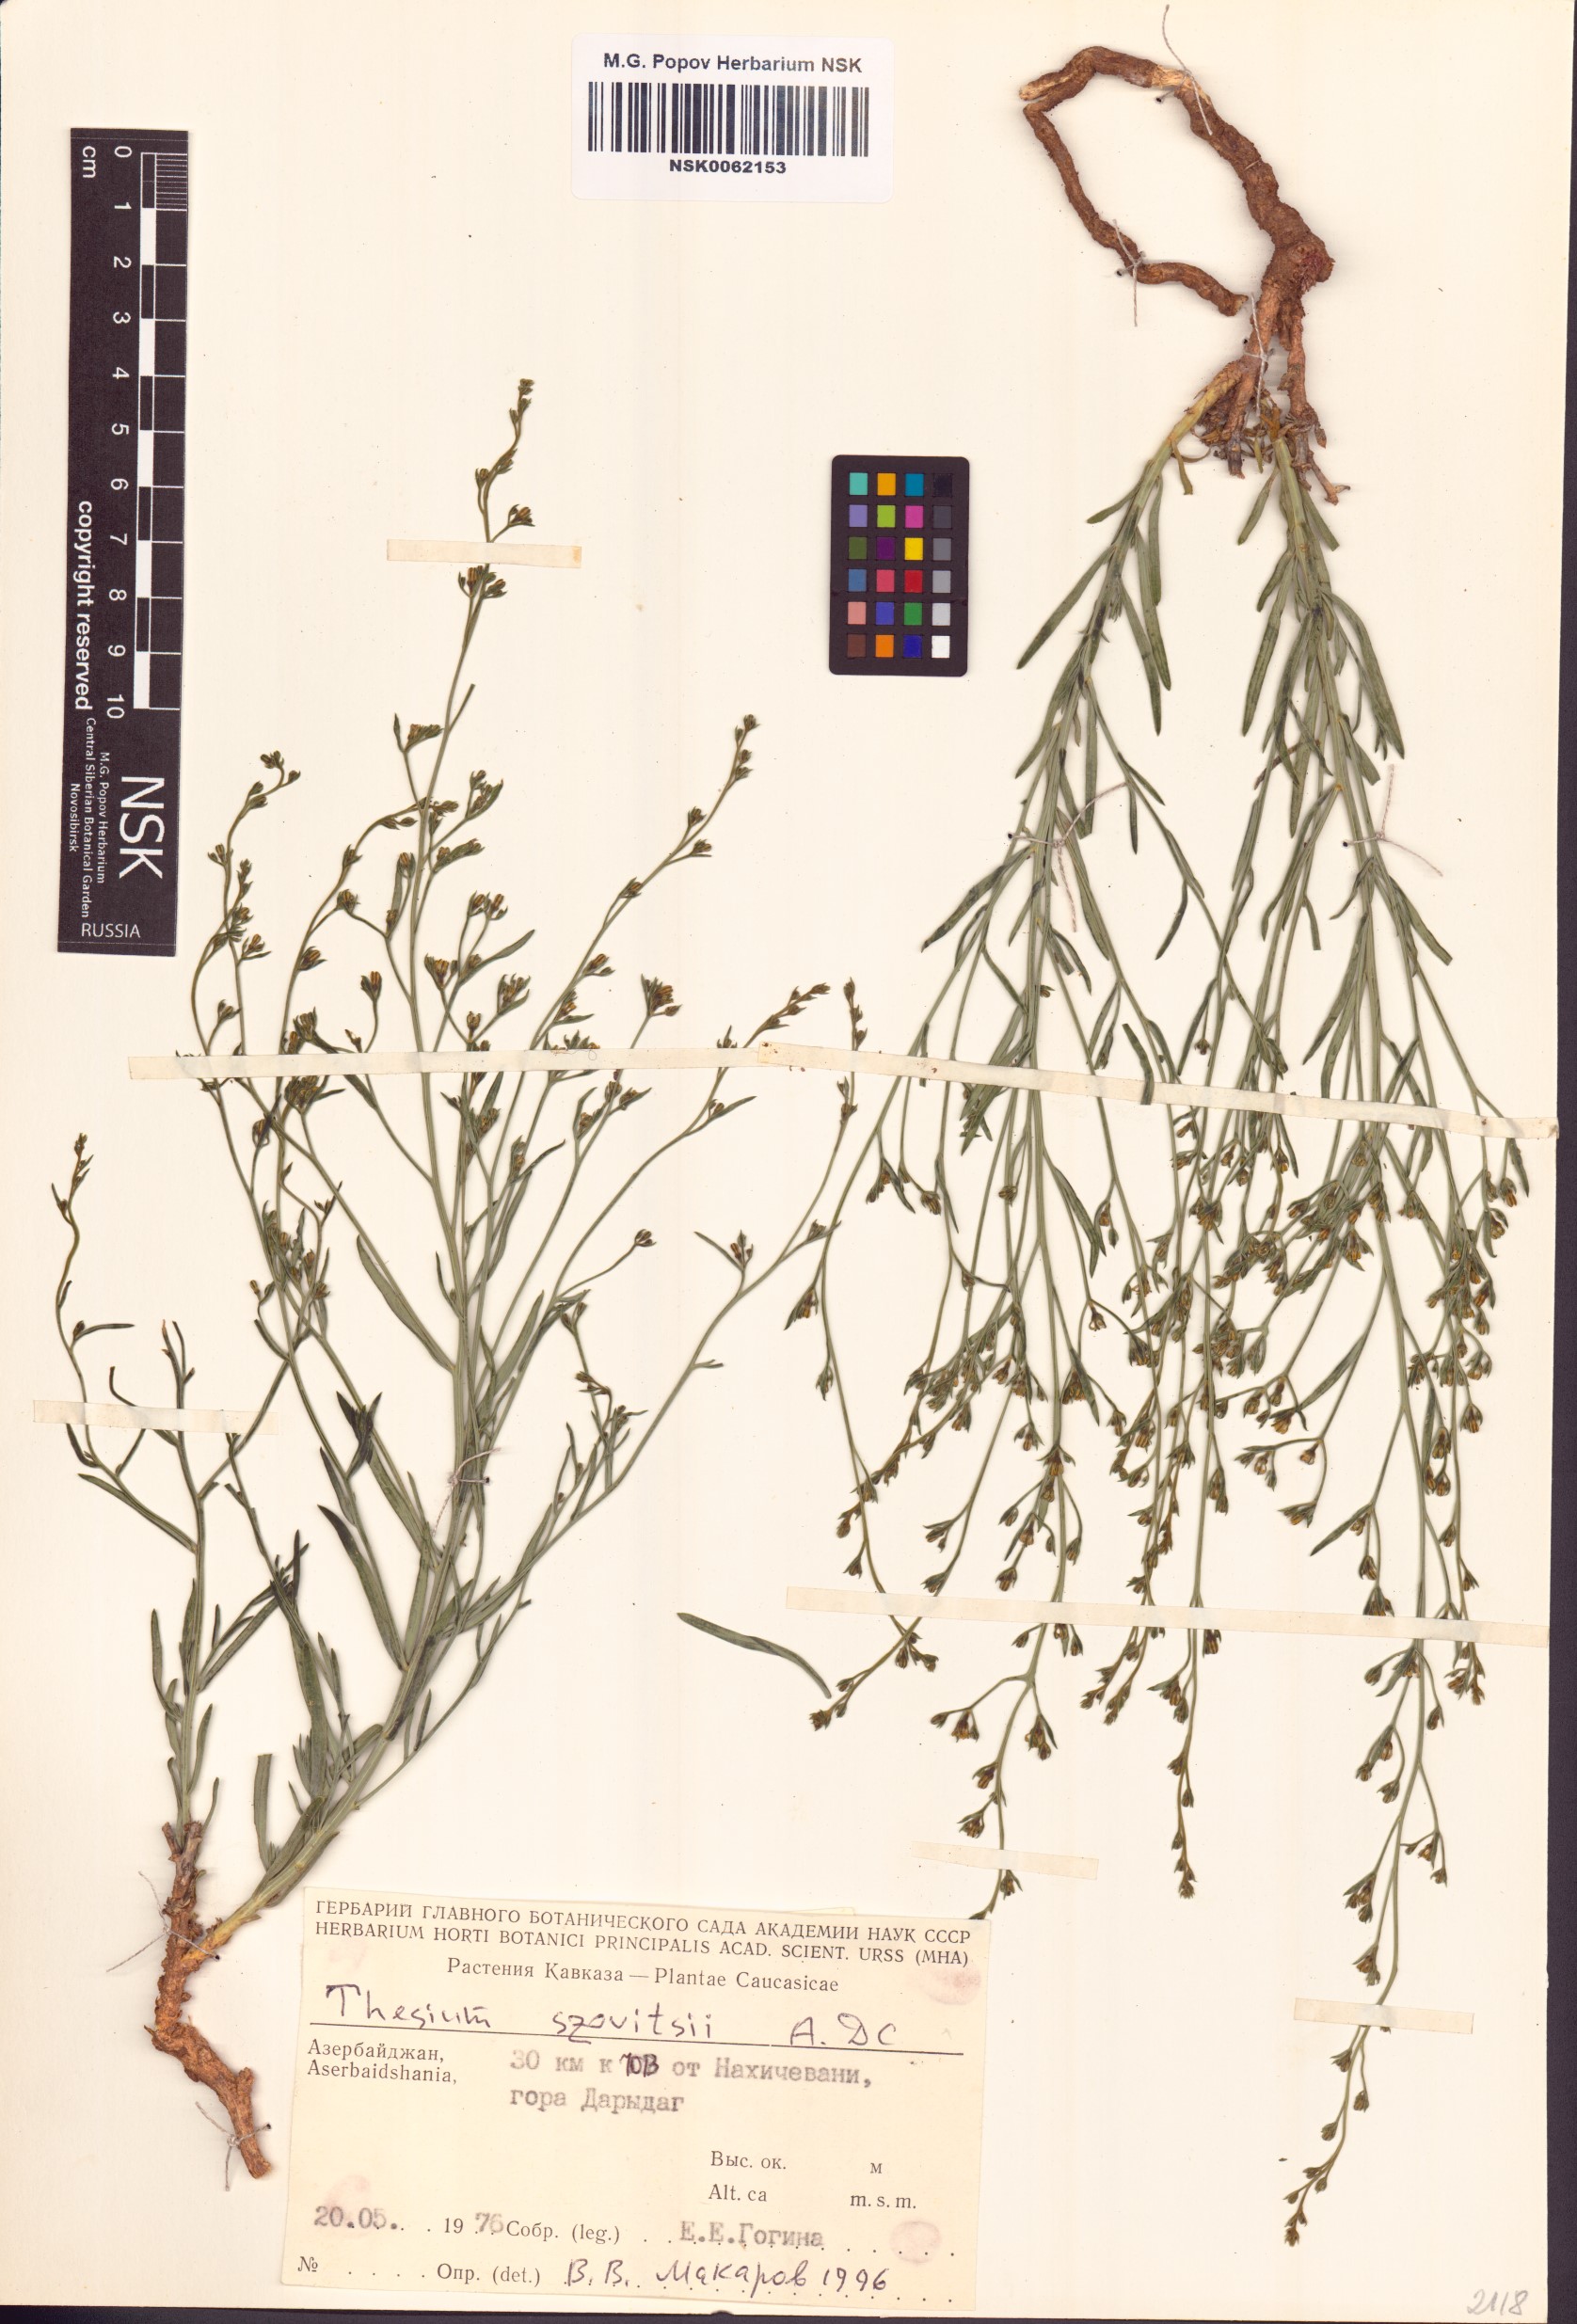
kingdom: Plantae
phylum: Tracheophyta
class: Magnoliopsida
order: Santalales
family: Thesiaceae
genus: Thesium
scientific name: Thesium szowitsii
